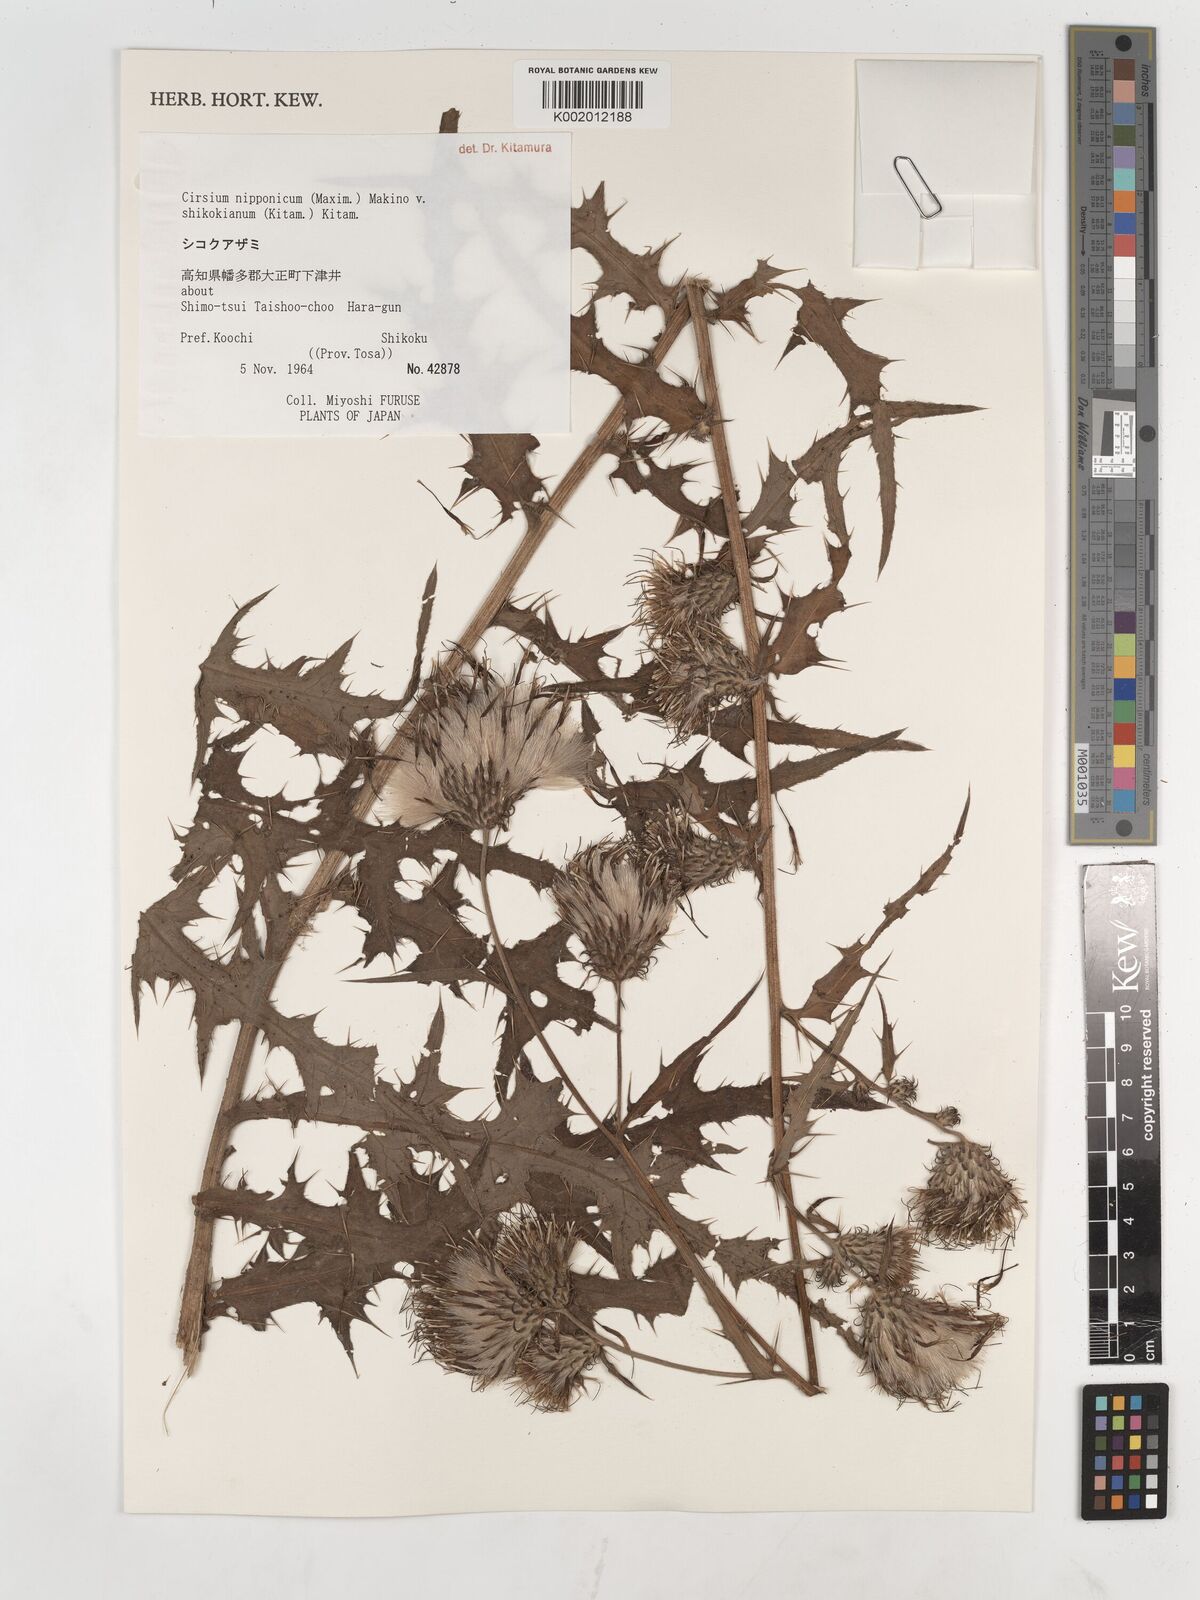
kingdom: Plantae
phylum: Tracheophyta
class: Magnoliopsida
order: Asterales
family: Asteraceae
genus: Cirsium
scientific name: Cirsium nipponicum
